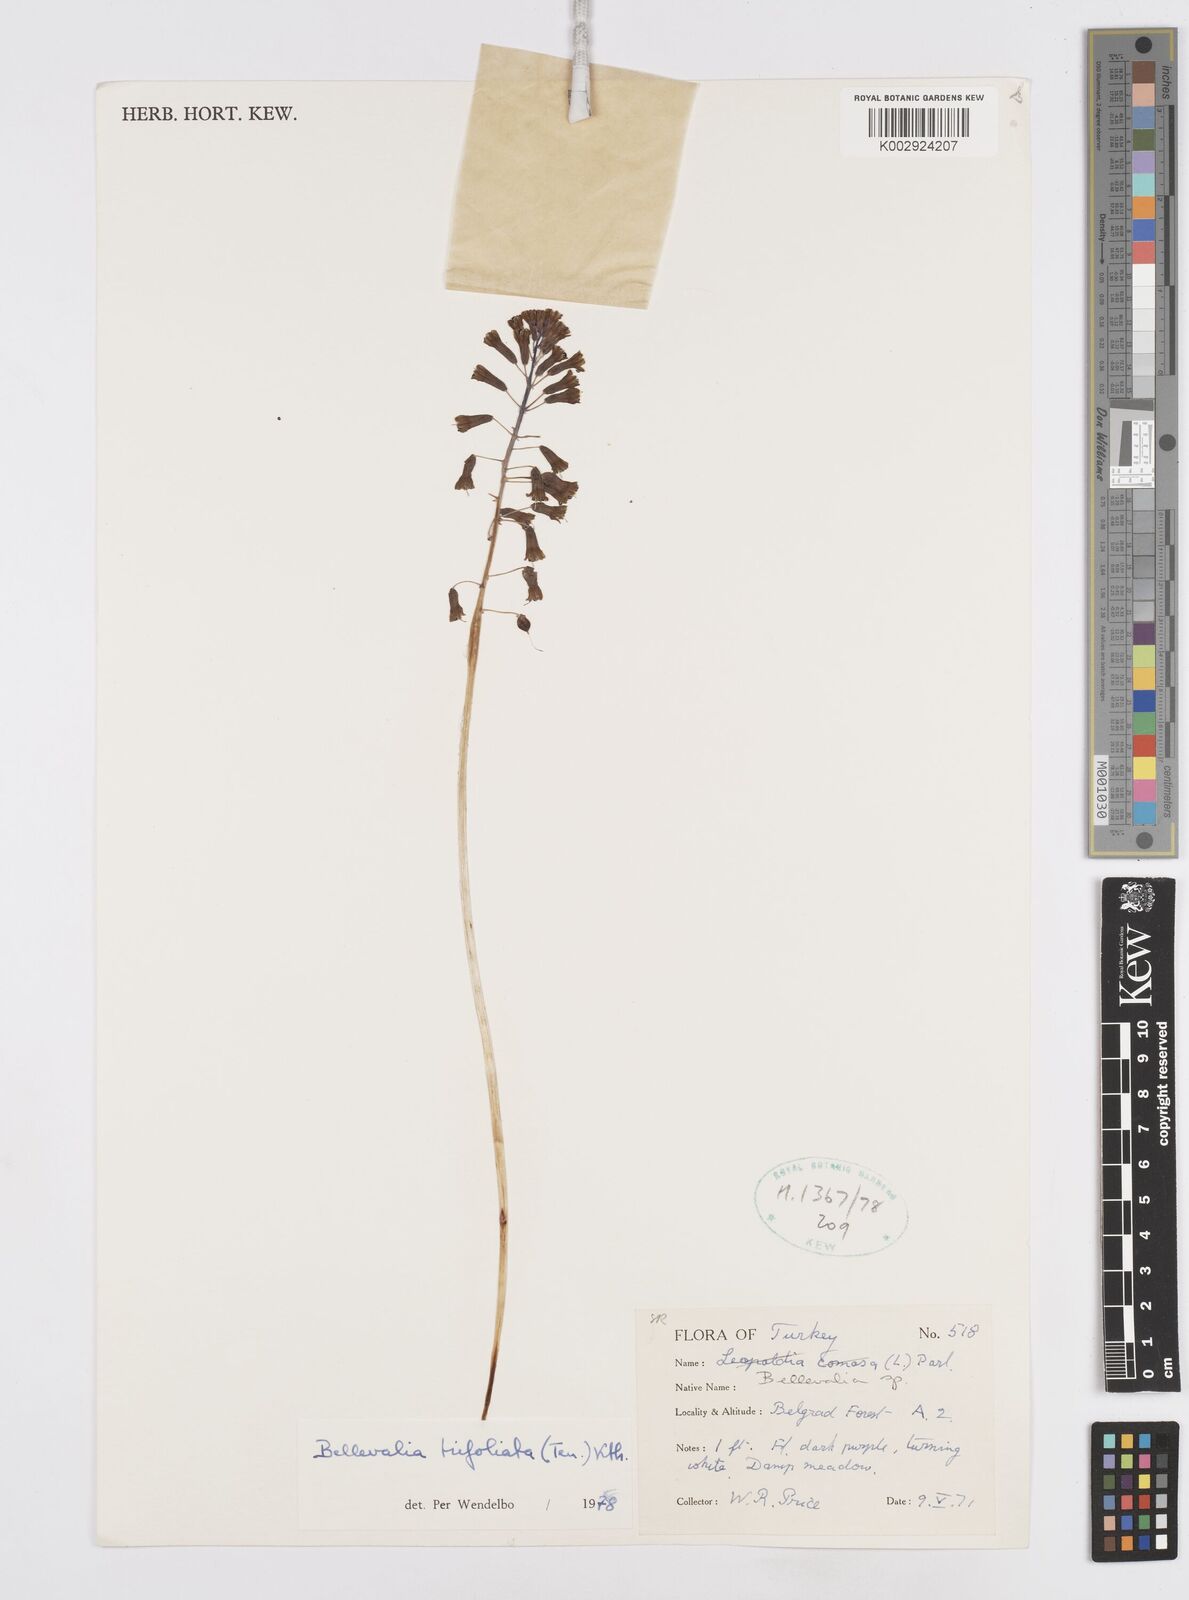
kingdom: Plantae
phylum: Tracheophyta
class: Liliopsida
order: Asparagales
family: Asparagaceae
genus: Bellevalia
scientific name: Bellevalia trifoliata
